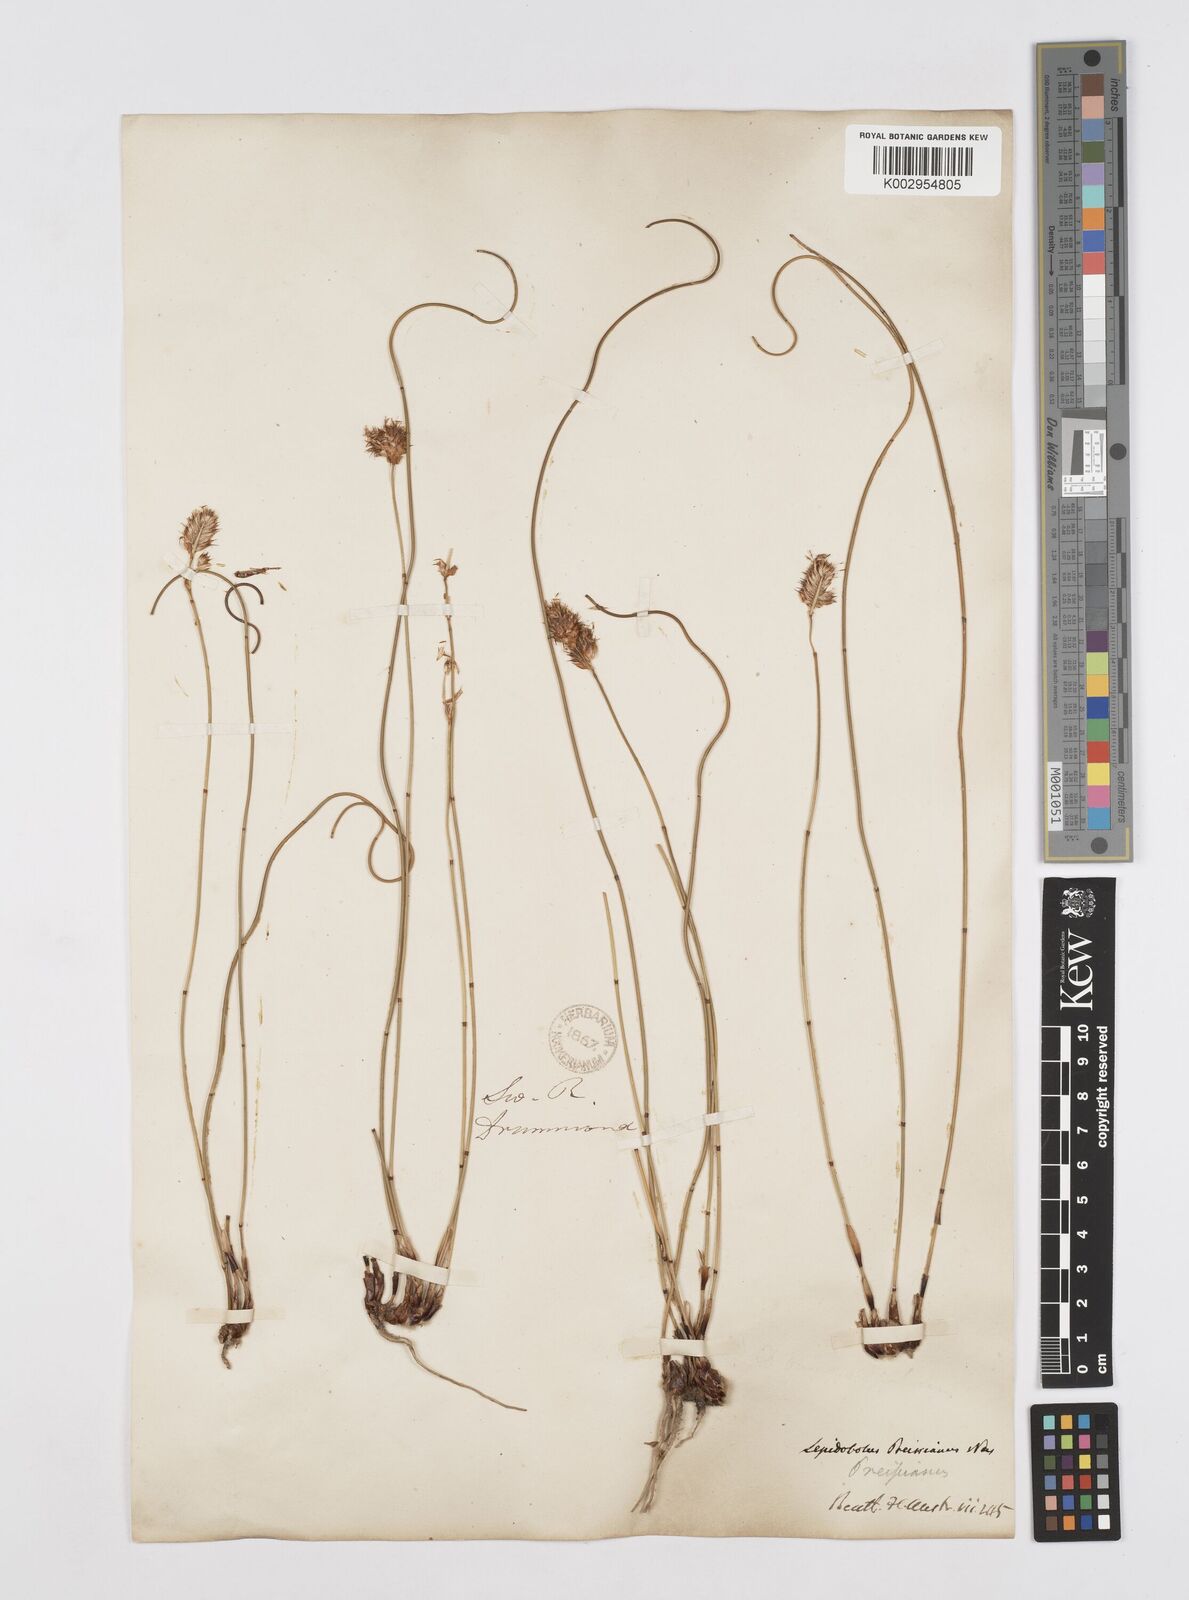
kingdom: Plantae
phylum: Tracheophyta
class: Liliopsida
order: Poales
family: Restionaceae
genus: Lepidobolus
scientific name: Lepidobolus preissianus
